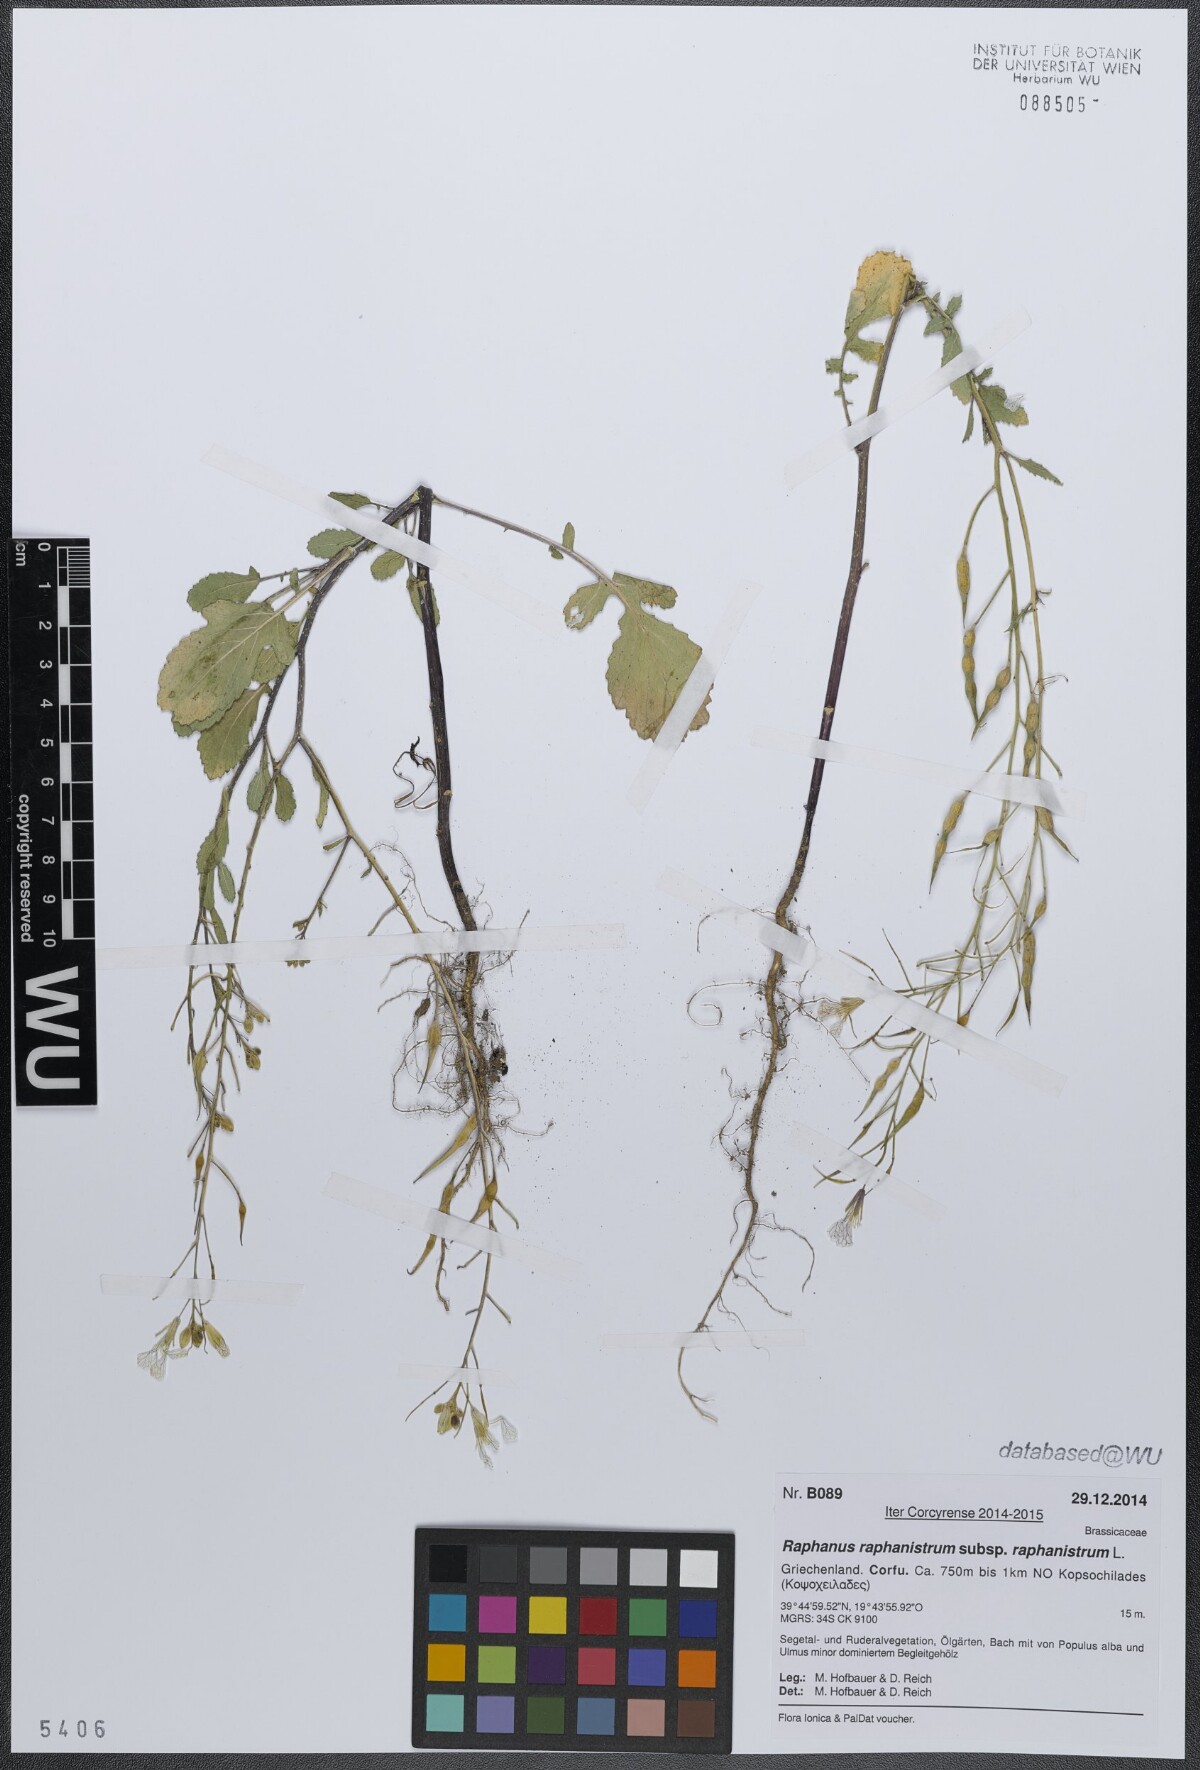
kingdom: Plantae
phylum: Tracheophyta
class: Magnoliopsida
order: Brassicales
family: Brassicaceae
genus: Raphanus
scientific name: Raphanus raphanistrum
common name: Wild radish
